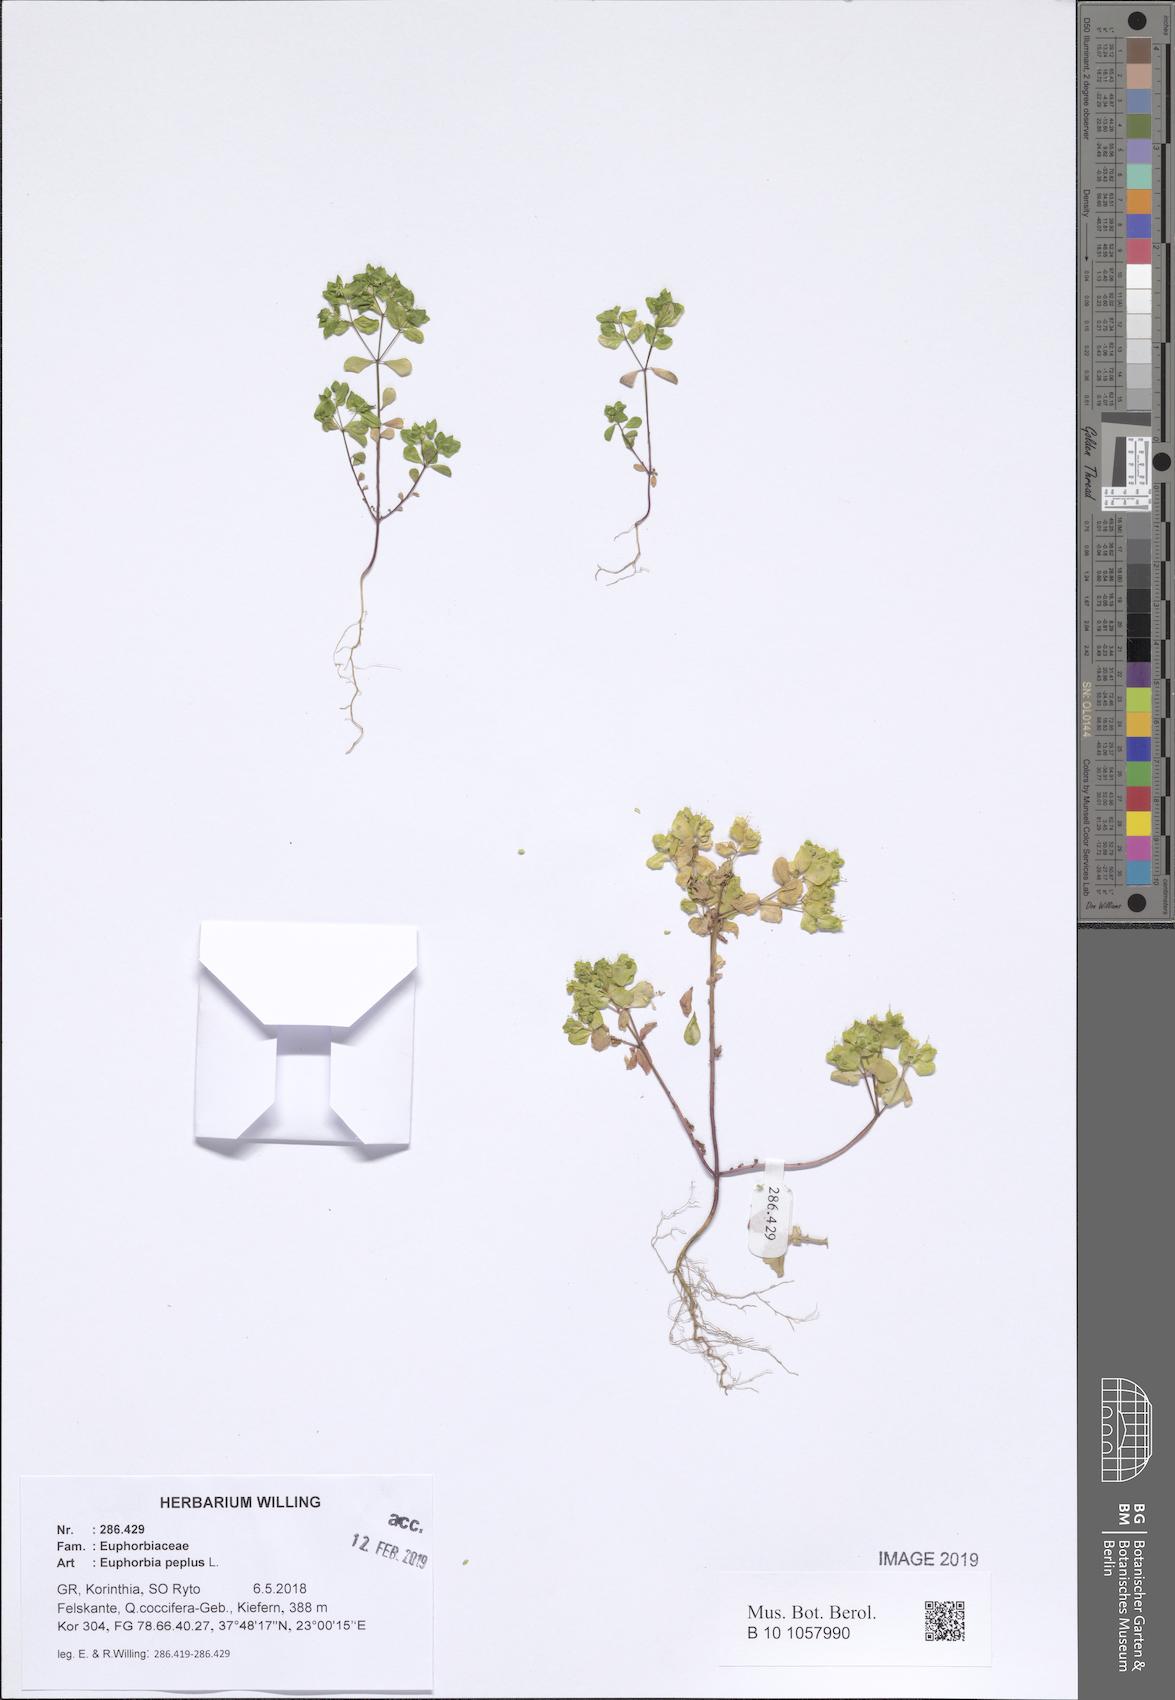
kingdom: Plantae
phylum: Tracheophyta
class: Magnoliopsida
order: Malpighiales
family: Euphorbiaceae
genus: Euphorbia
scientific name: Euphorbia peplus
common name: Petty spurge
